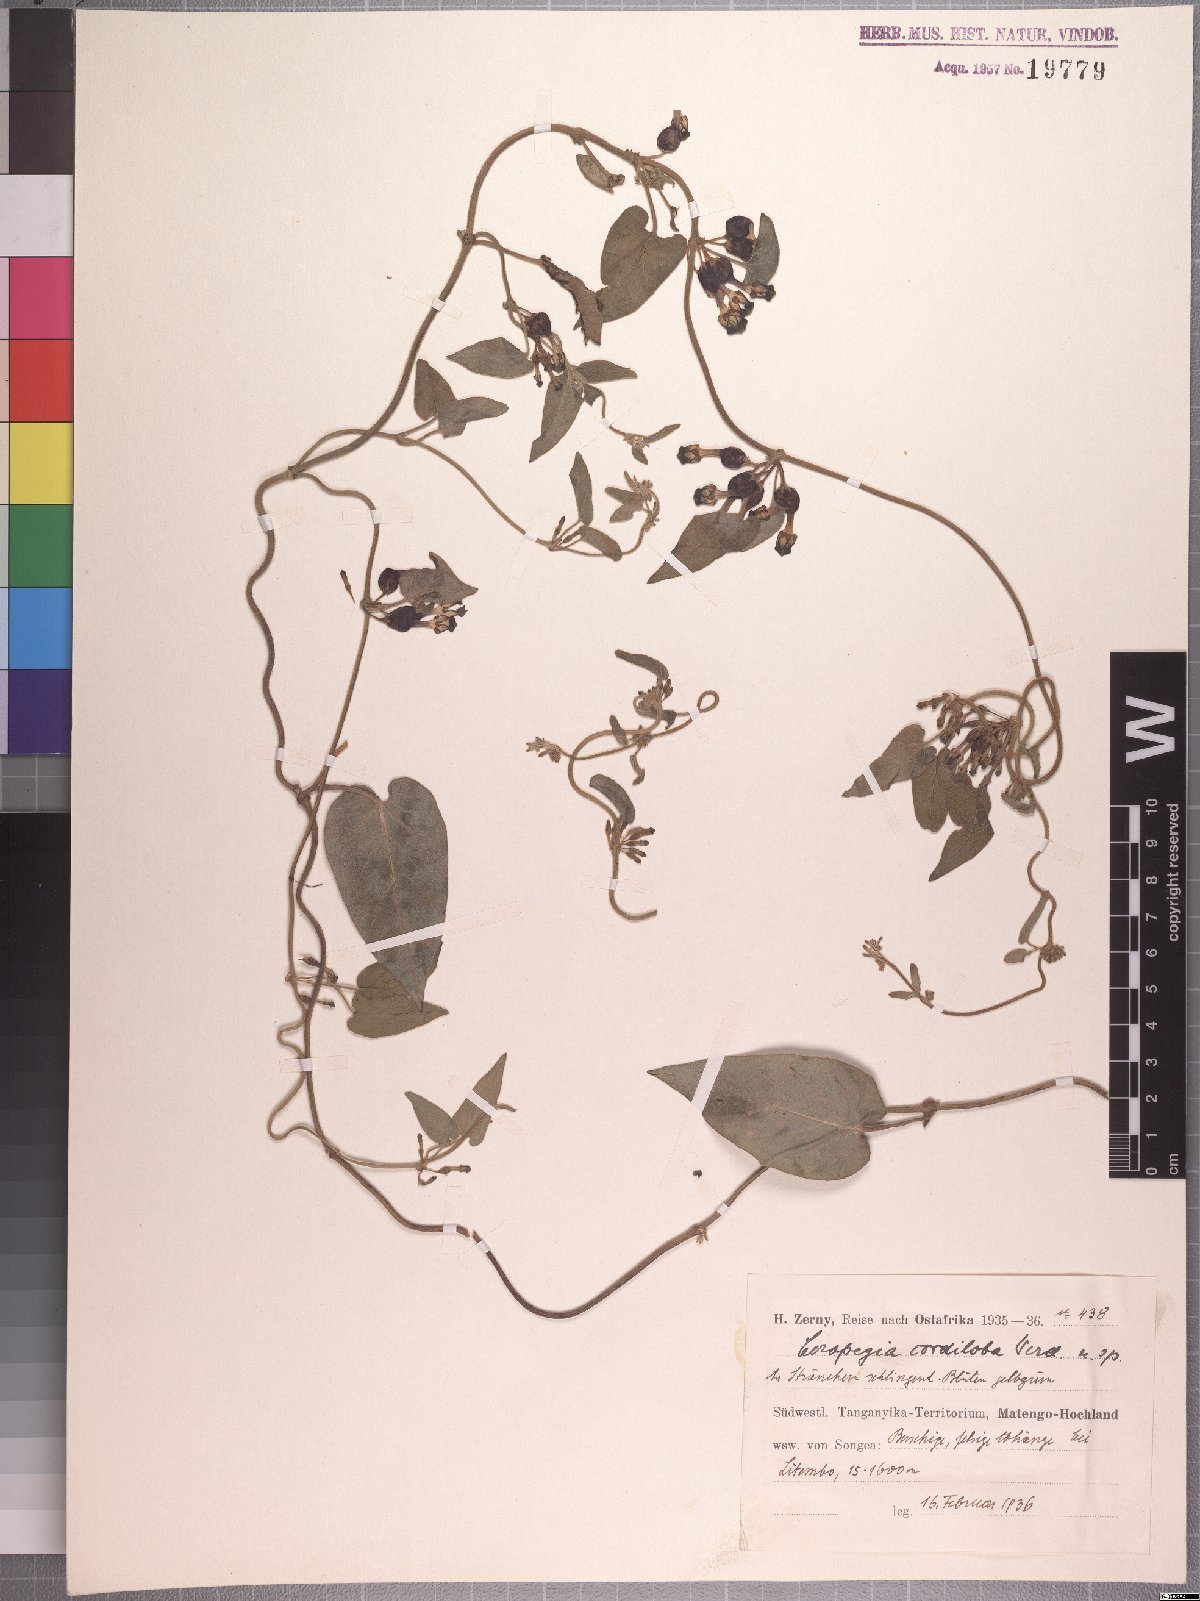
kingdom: Plantae
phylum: Tracheophyta
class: Magnoliopsida
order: Gentianales
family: Apocynaceae
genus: Ceropegia
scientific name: Ceropegia cordiloba
